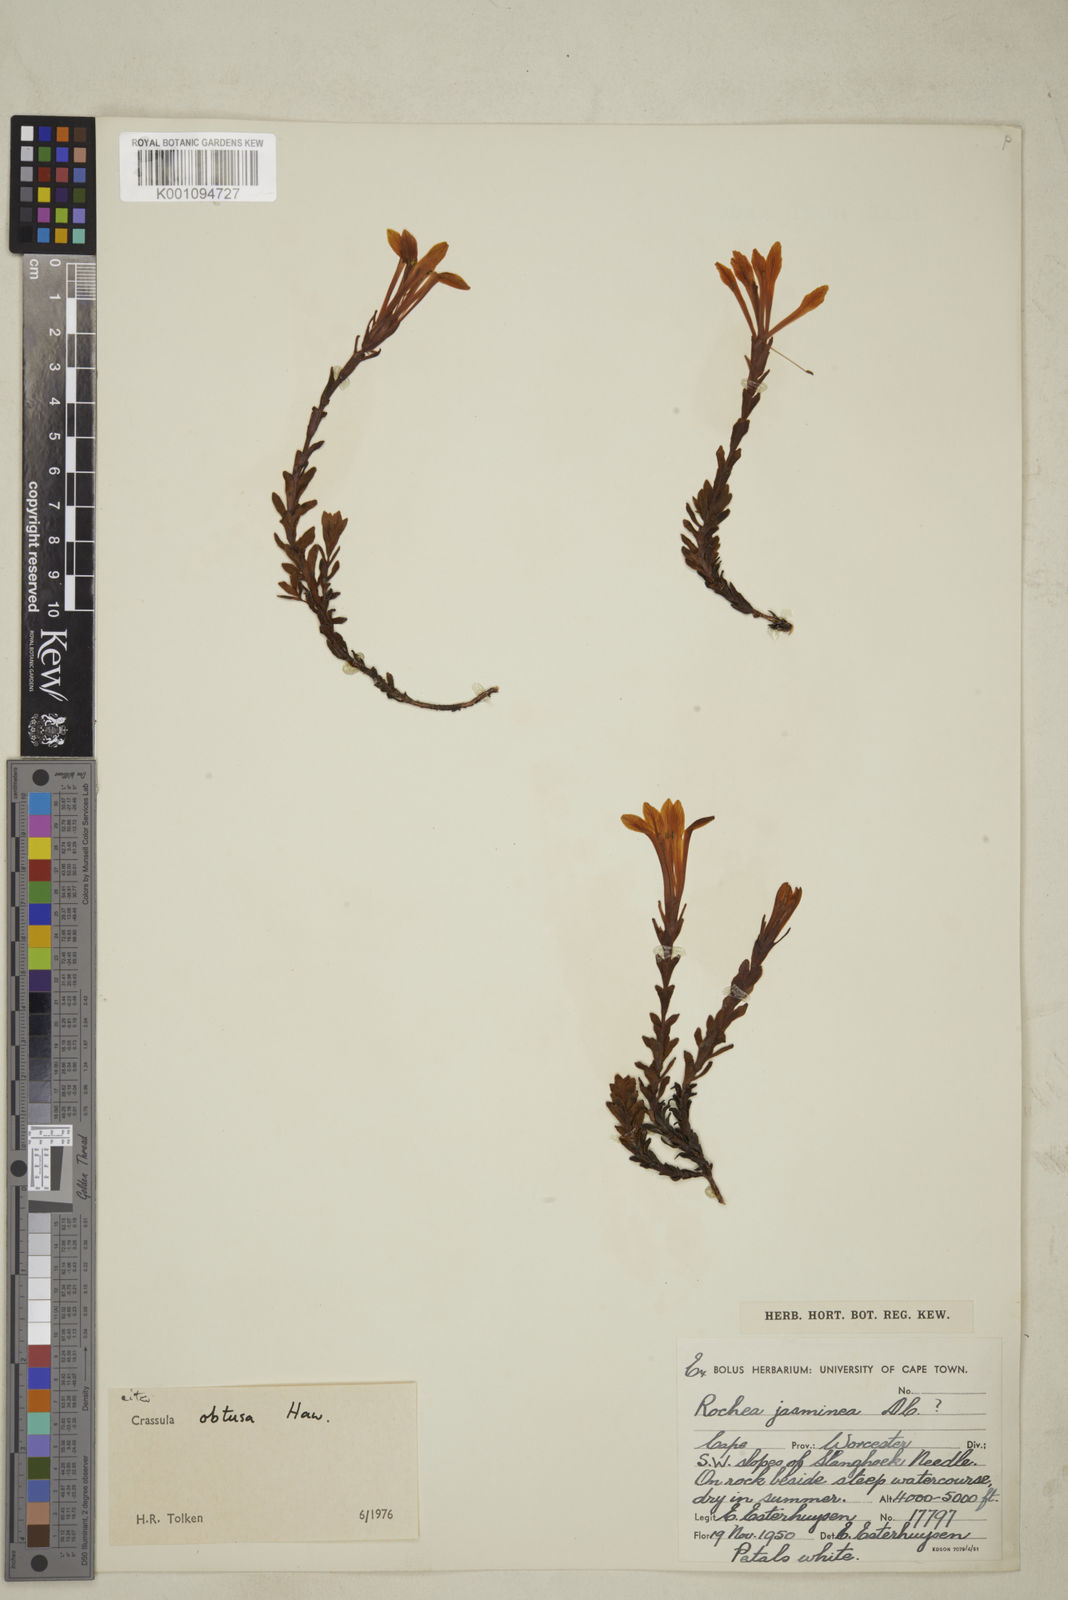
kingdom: Plantae
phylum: Tracheophyta
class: Magnoliopsida
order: Saxifragales
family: Crassulaceae
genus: Crassula
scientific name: Crassula obtusa
